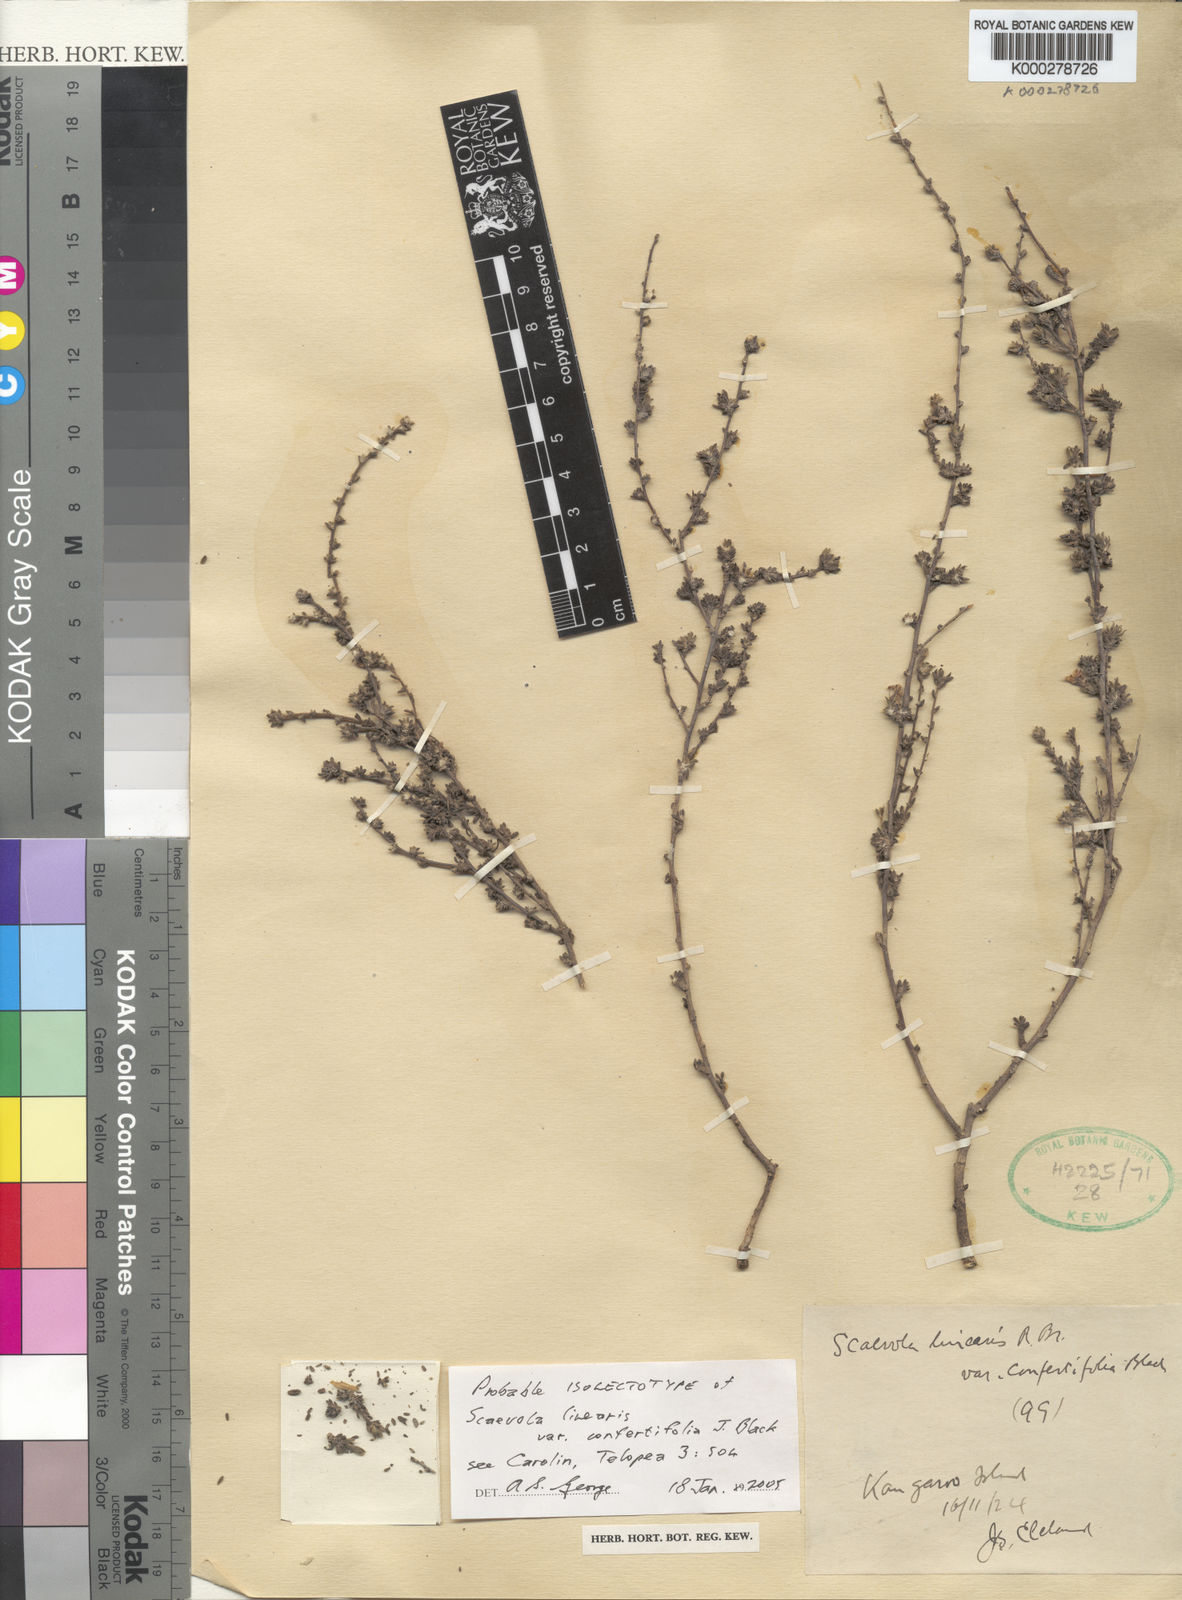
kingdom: Plantae
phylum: Tracheophyta
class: Magnoliopsida
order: Asterales
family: Goodeniaceae
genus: Scaevola
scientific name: Scaevola linearis
